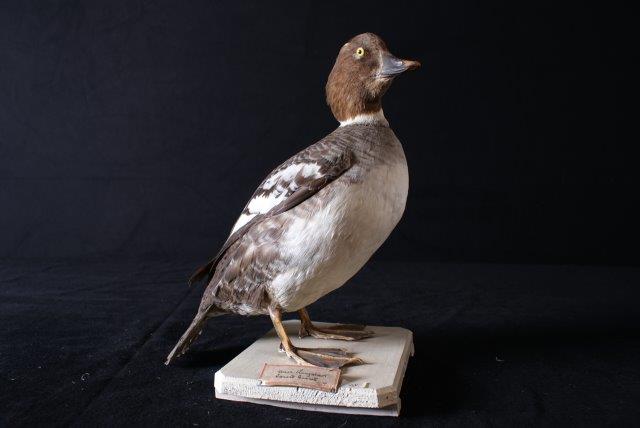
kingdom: Animalia
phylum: Chordata
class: Aves
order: Anseriformes
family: Anatidae
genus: Bucephala
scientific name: Bucephala clangula
